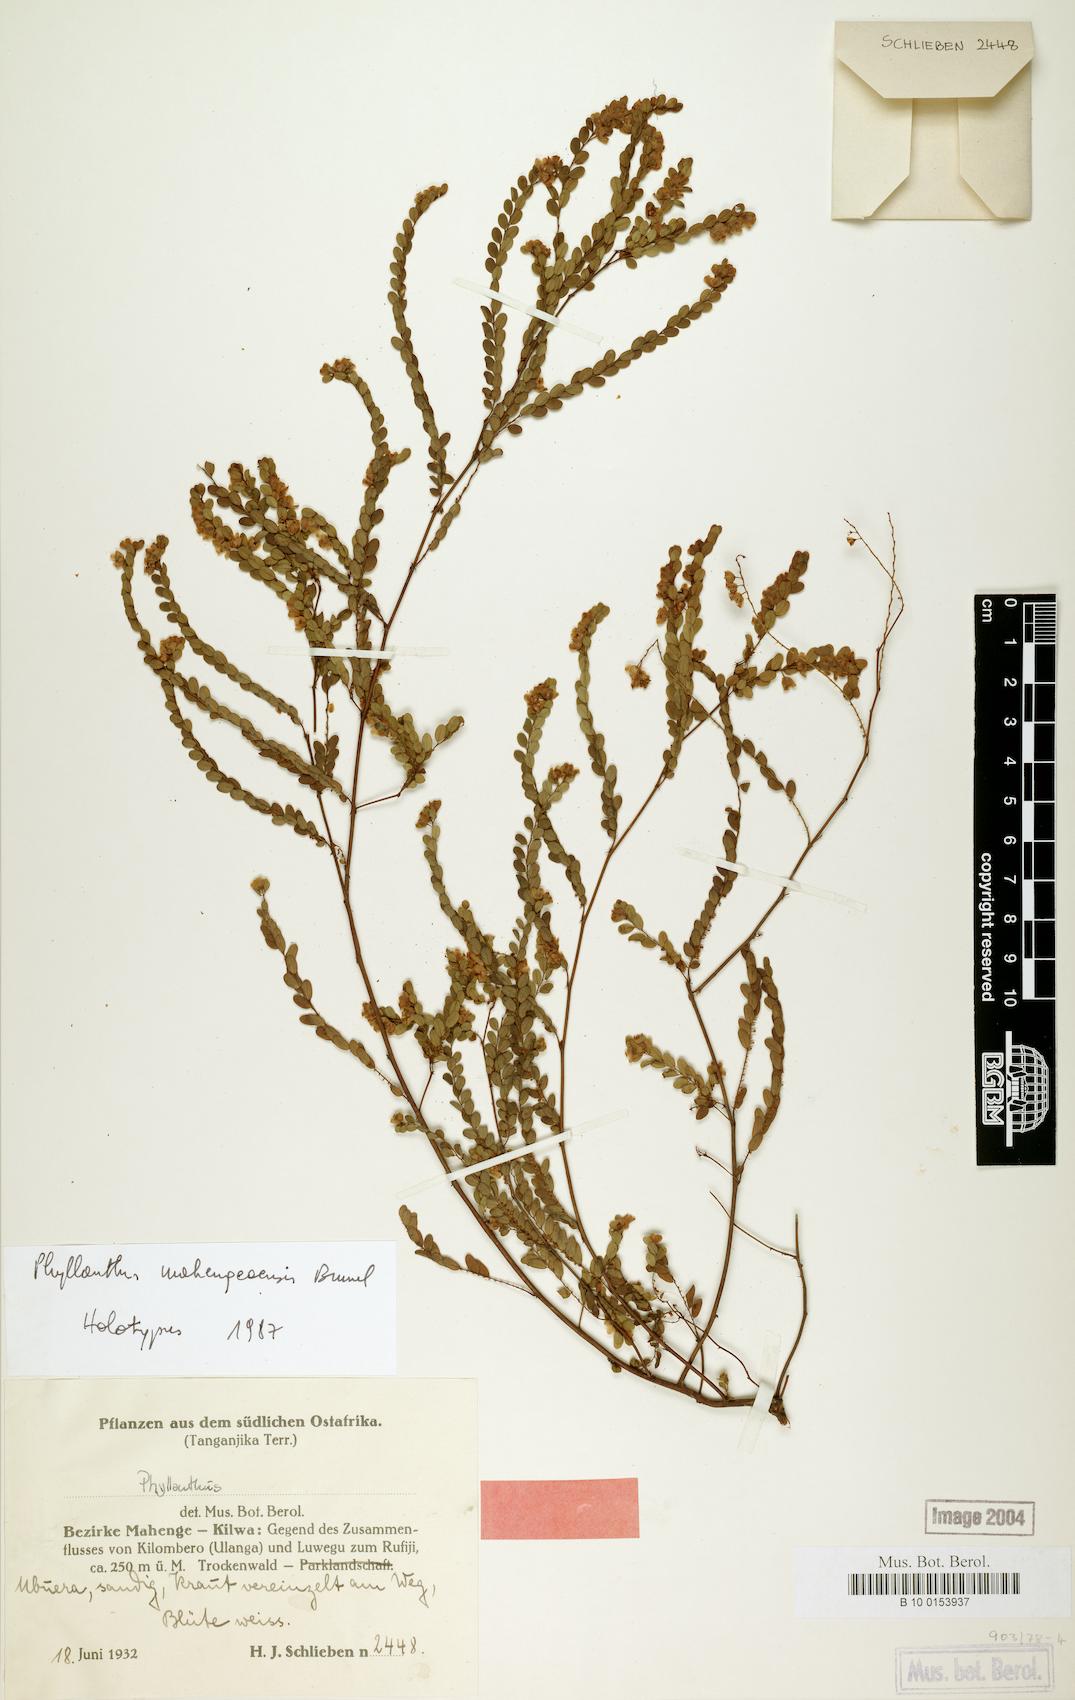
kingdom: Plantae
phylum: Tracheophyta
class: Magnoliopsida
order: Malpighiales
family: Phyllanthaceae
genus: Phyllanthus
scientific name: Phyllanthus mahengeaensis
